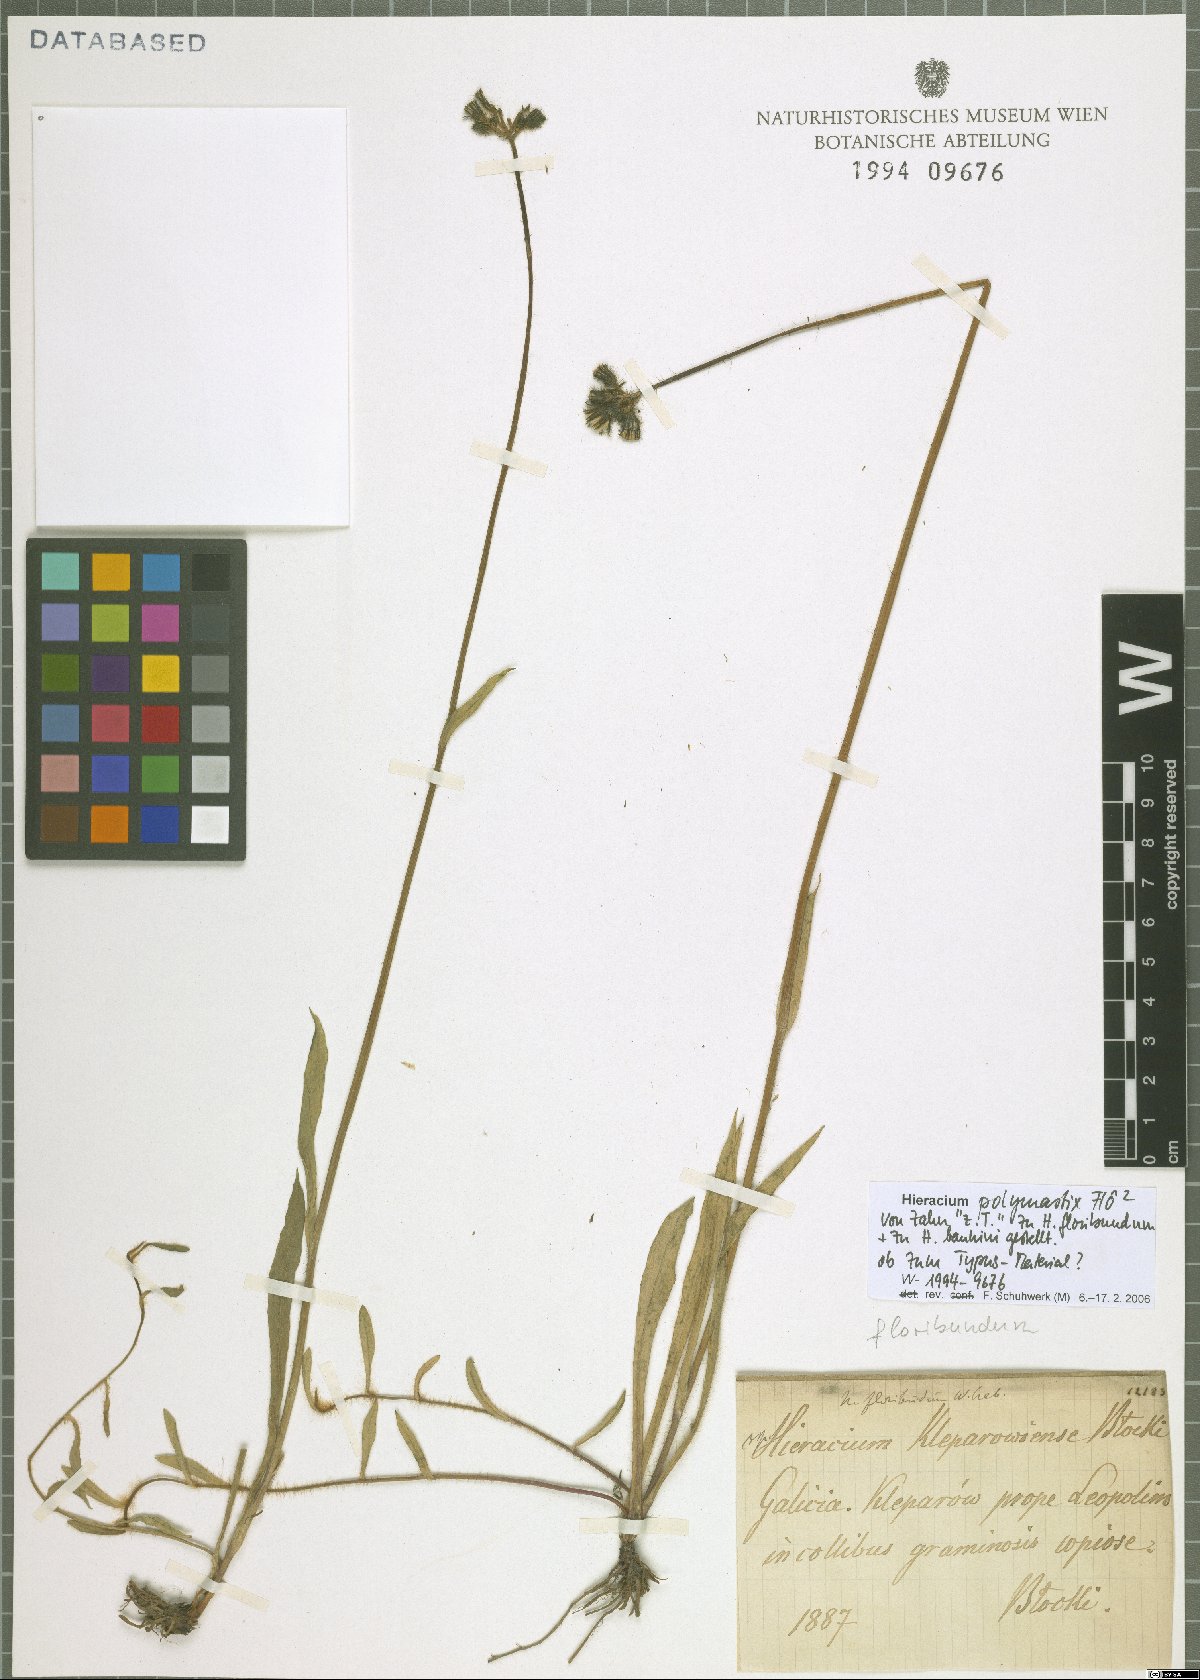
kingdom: Plantae
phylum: Tracheophyta
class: Magnoliopsida
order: Asterales
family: Asteraceae
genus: Pilosella
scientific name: Pilosella polymastix
